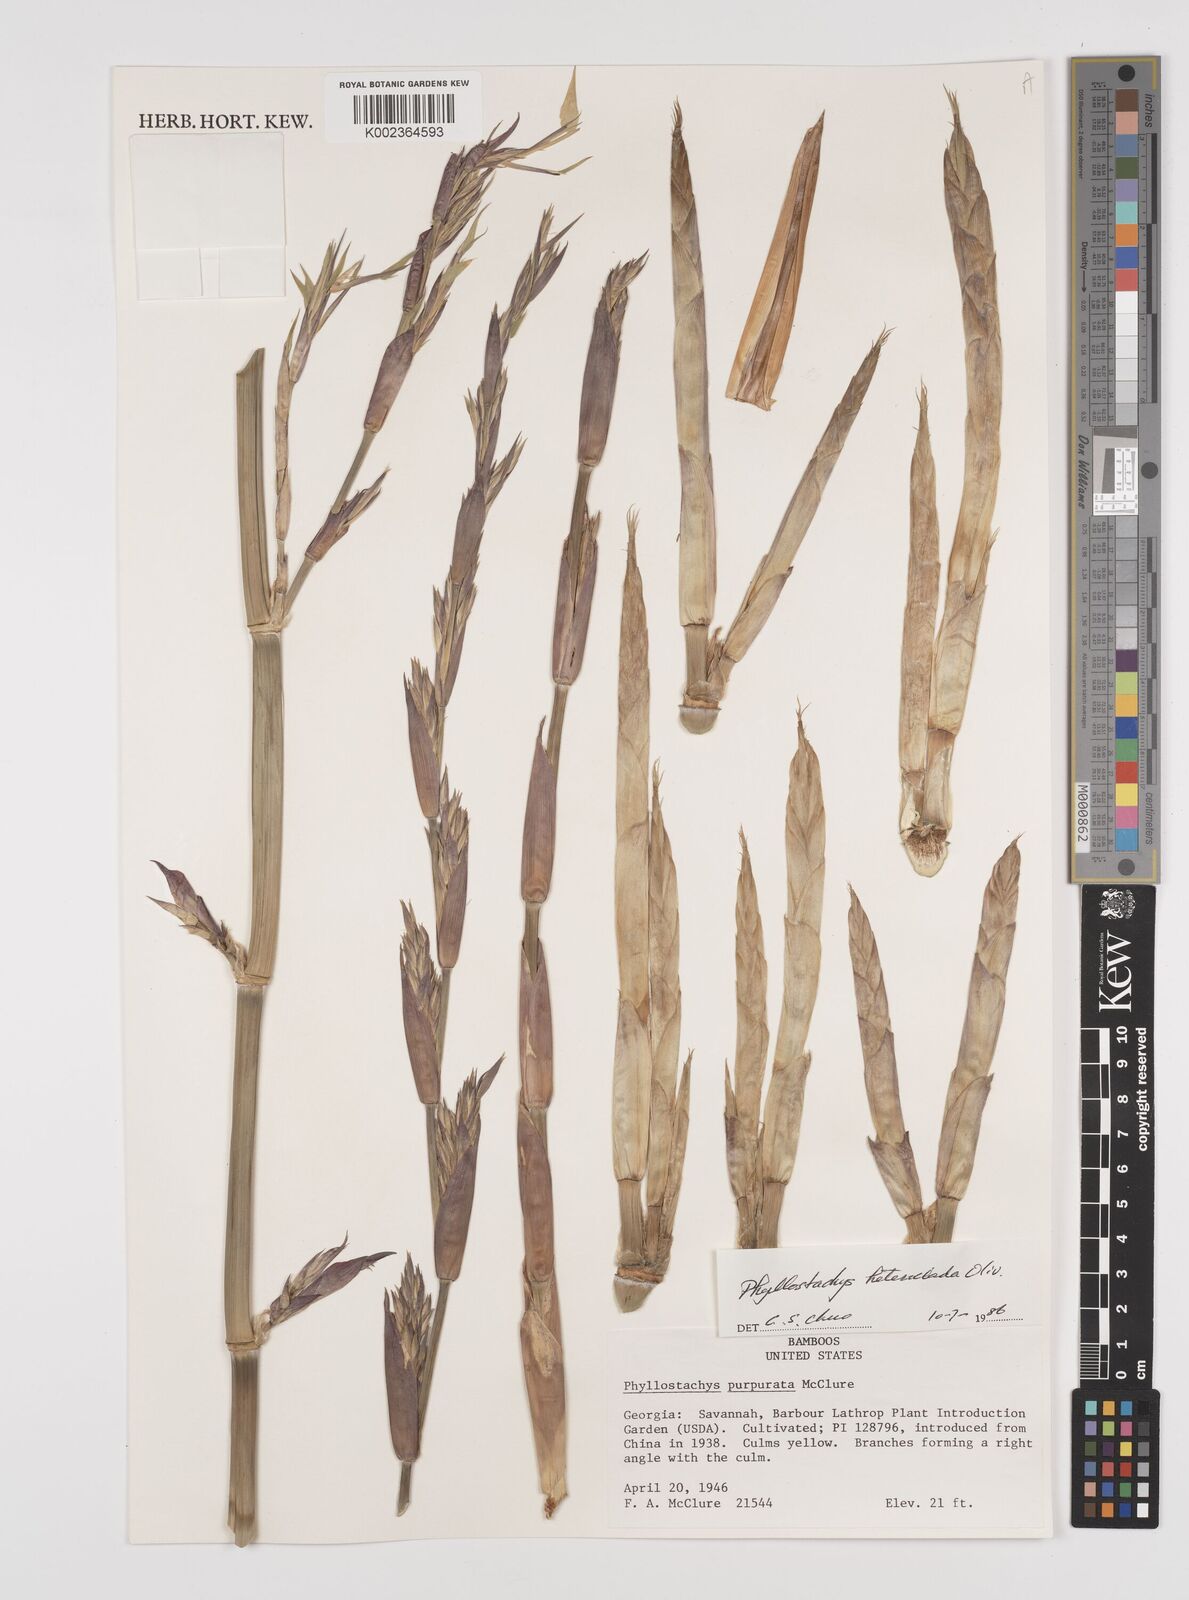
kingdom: Plantae
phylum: Tracheophyta
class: Liliopsida
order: Poales
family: Poaceae
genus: Phyllostachys
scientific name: Phyllostachys heteroclada
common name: Fishscale bamboo
